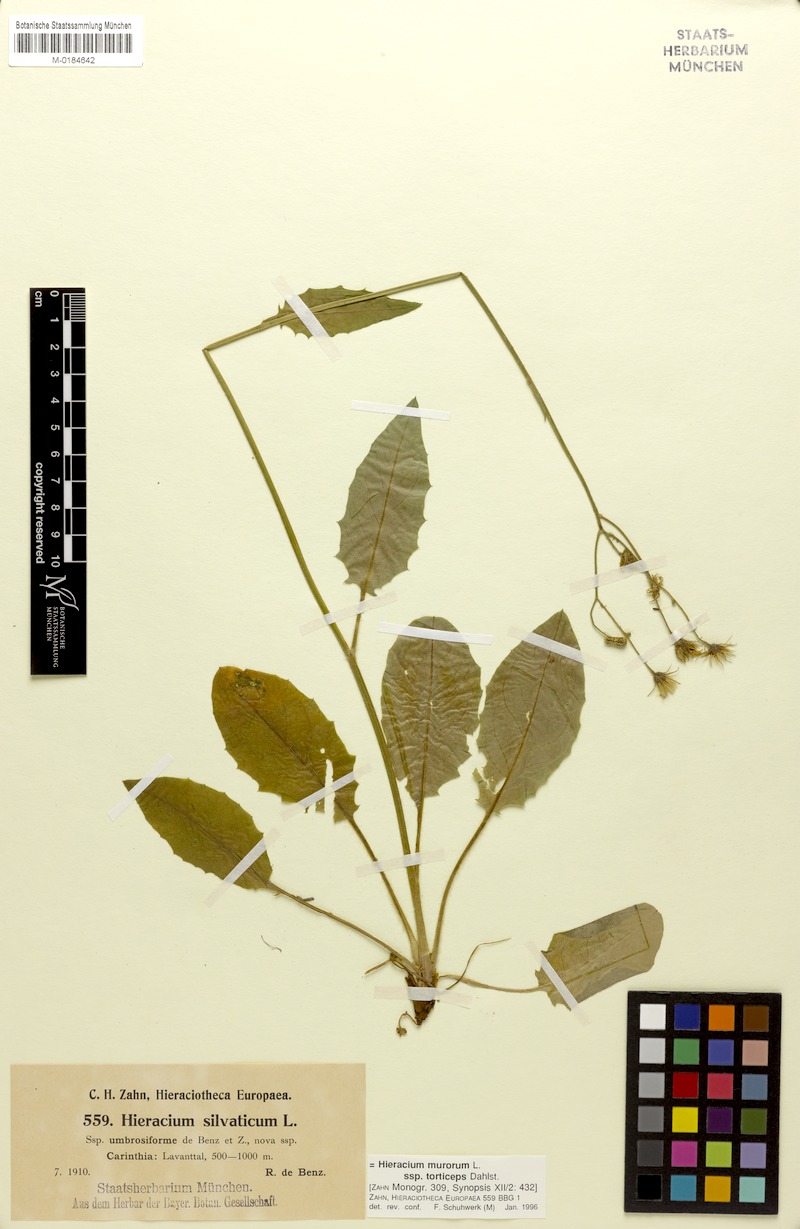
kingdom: Plantae
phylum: Tracheophyta
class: Magnoliopsida
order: Asterales
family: Asteraceae
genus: Hieracium
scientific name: Hieracium murorum
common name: Wall hawkweed
